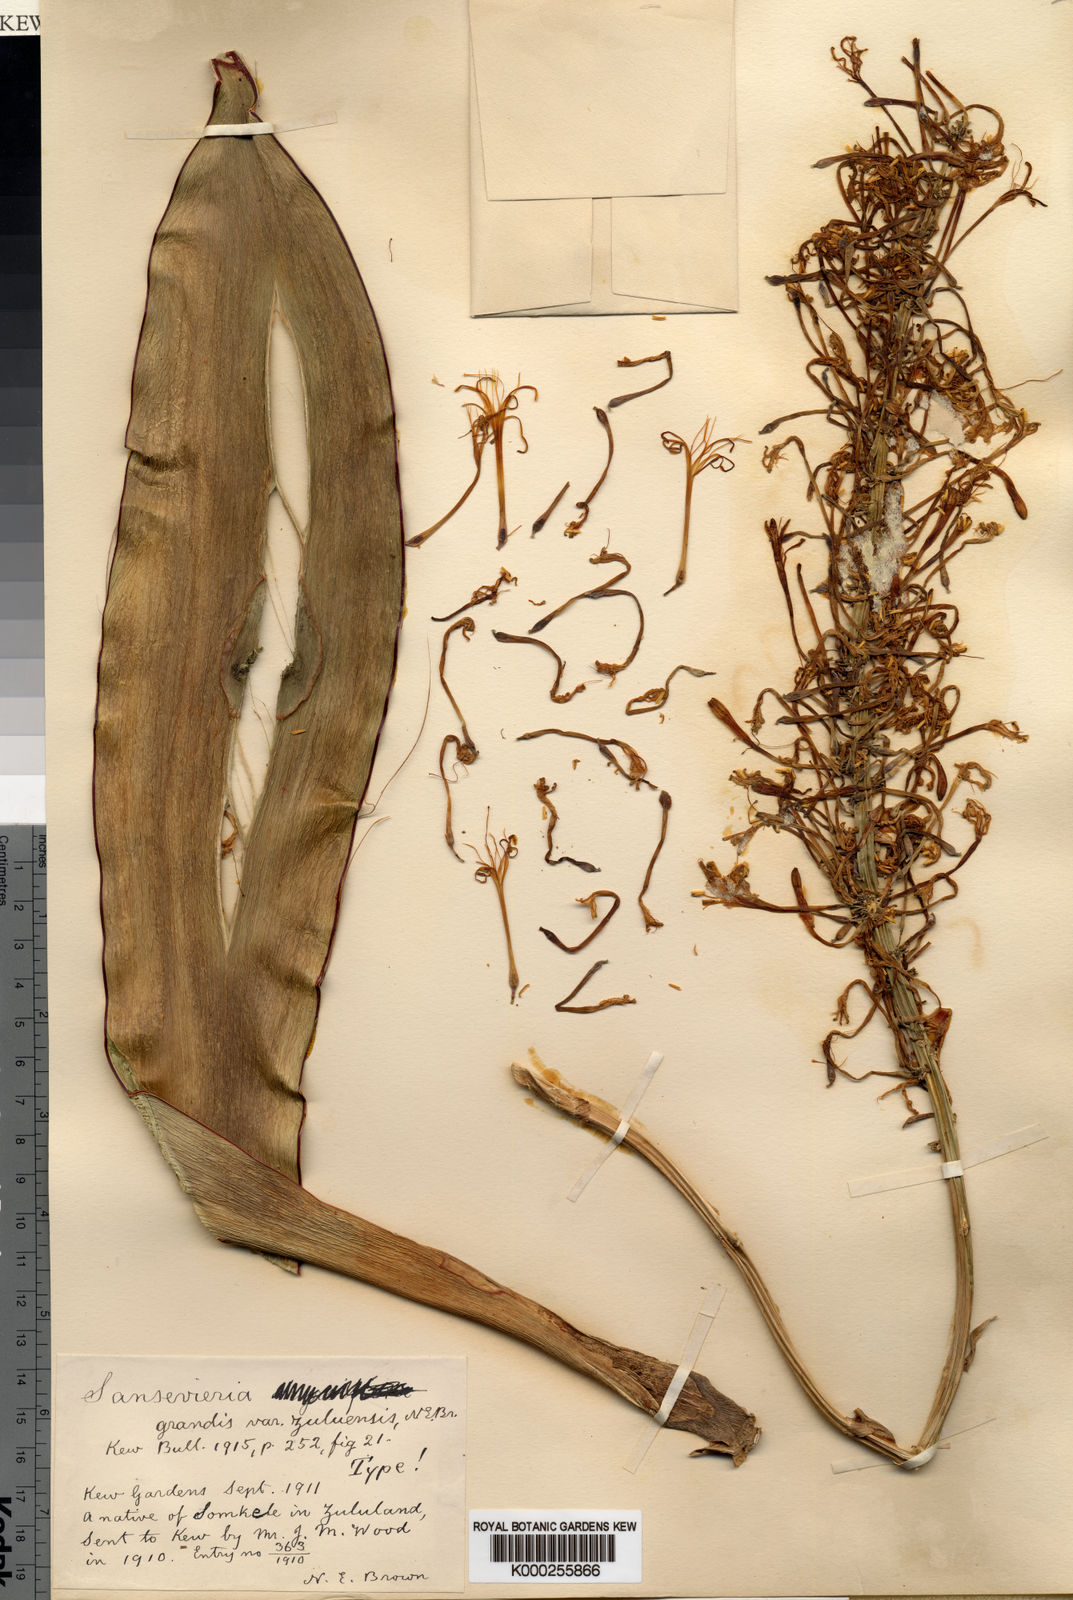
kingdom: Plantae
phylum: Tracheophyta
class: Liliopsida
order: Asparagales
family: Asparagaceae
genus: Dracaena
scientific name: Dracaena hyacinthoides
